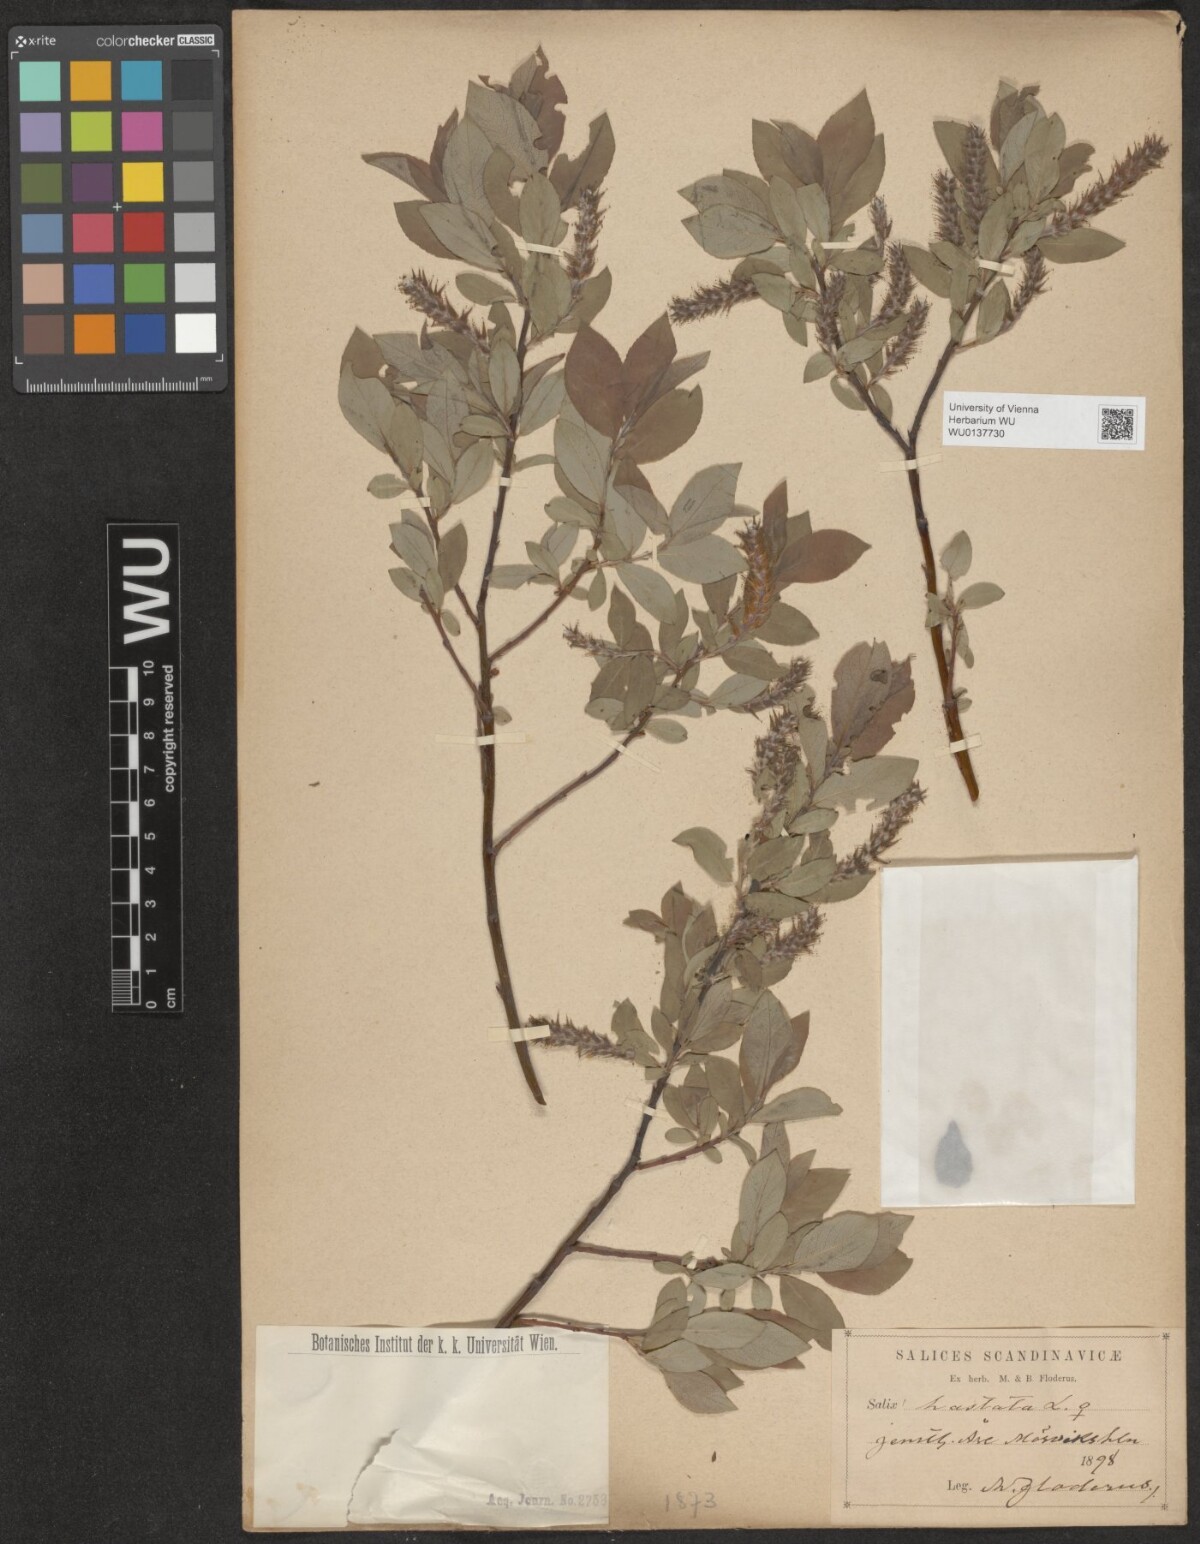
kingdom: Plantae
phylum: Tracheophyta
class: Magnoliopsida
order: Malpighiales
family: Salicaceae
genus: Salix
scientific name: Salix hastata
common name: Halberd willow
